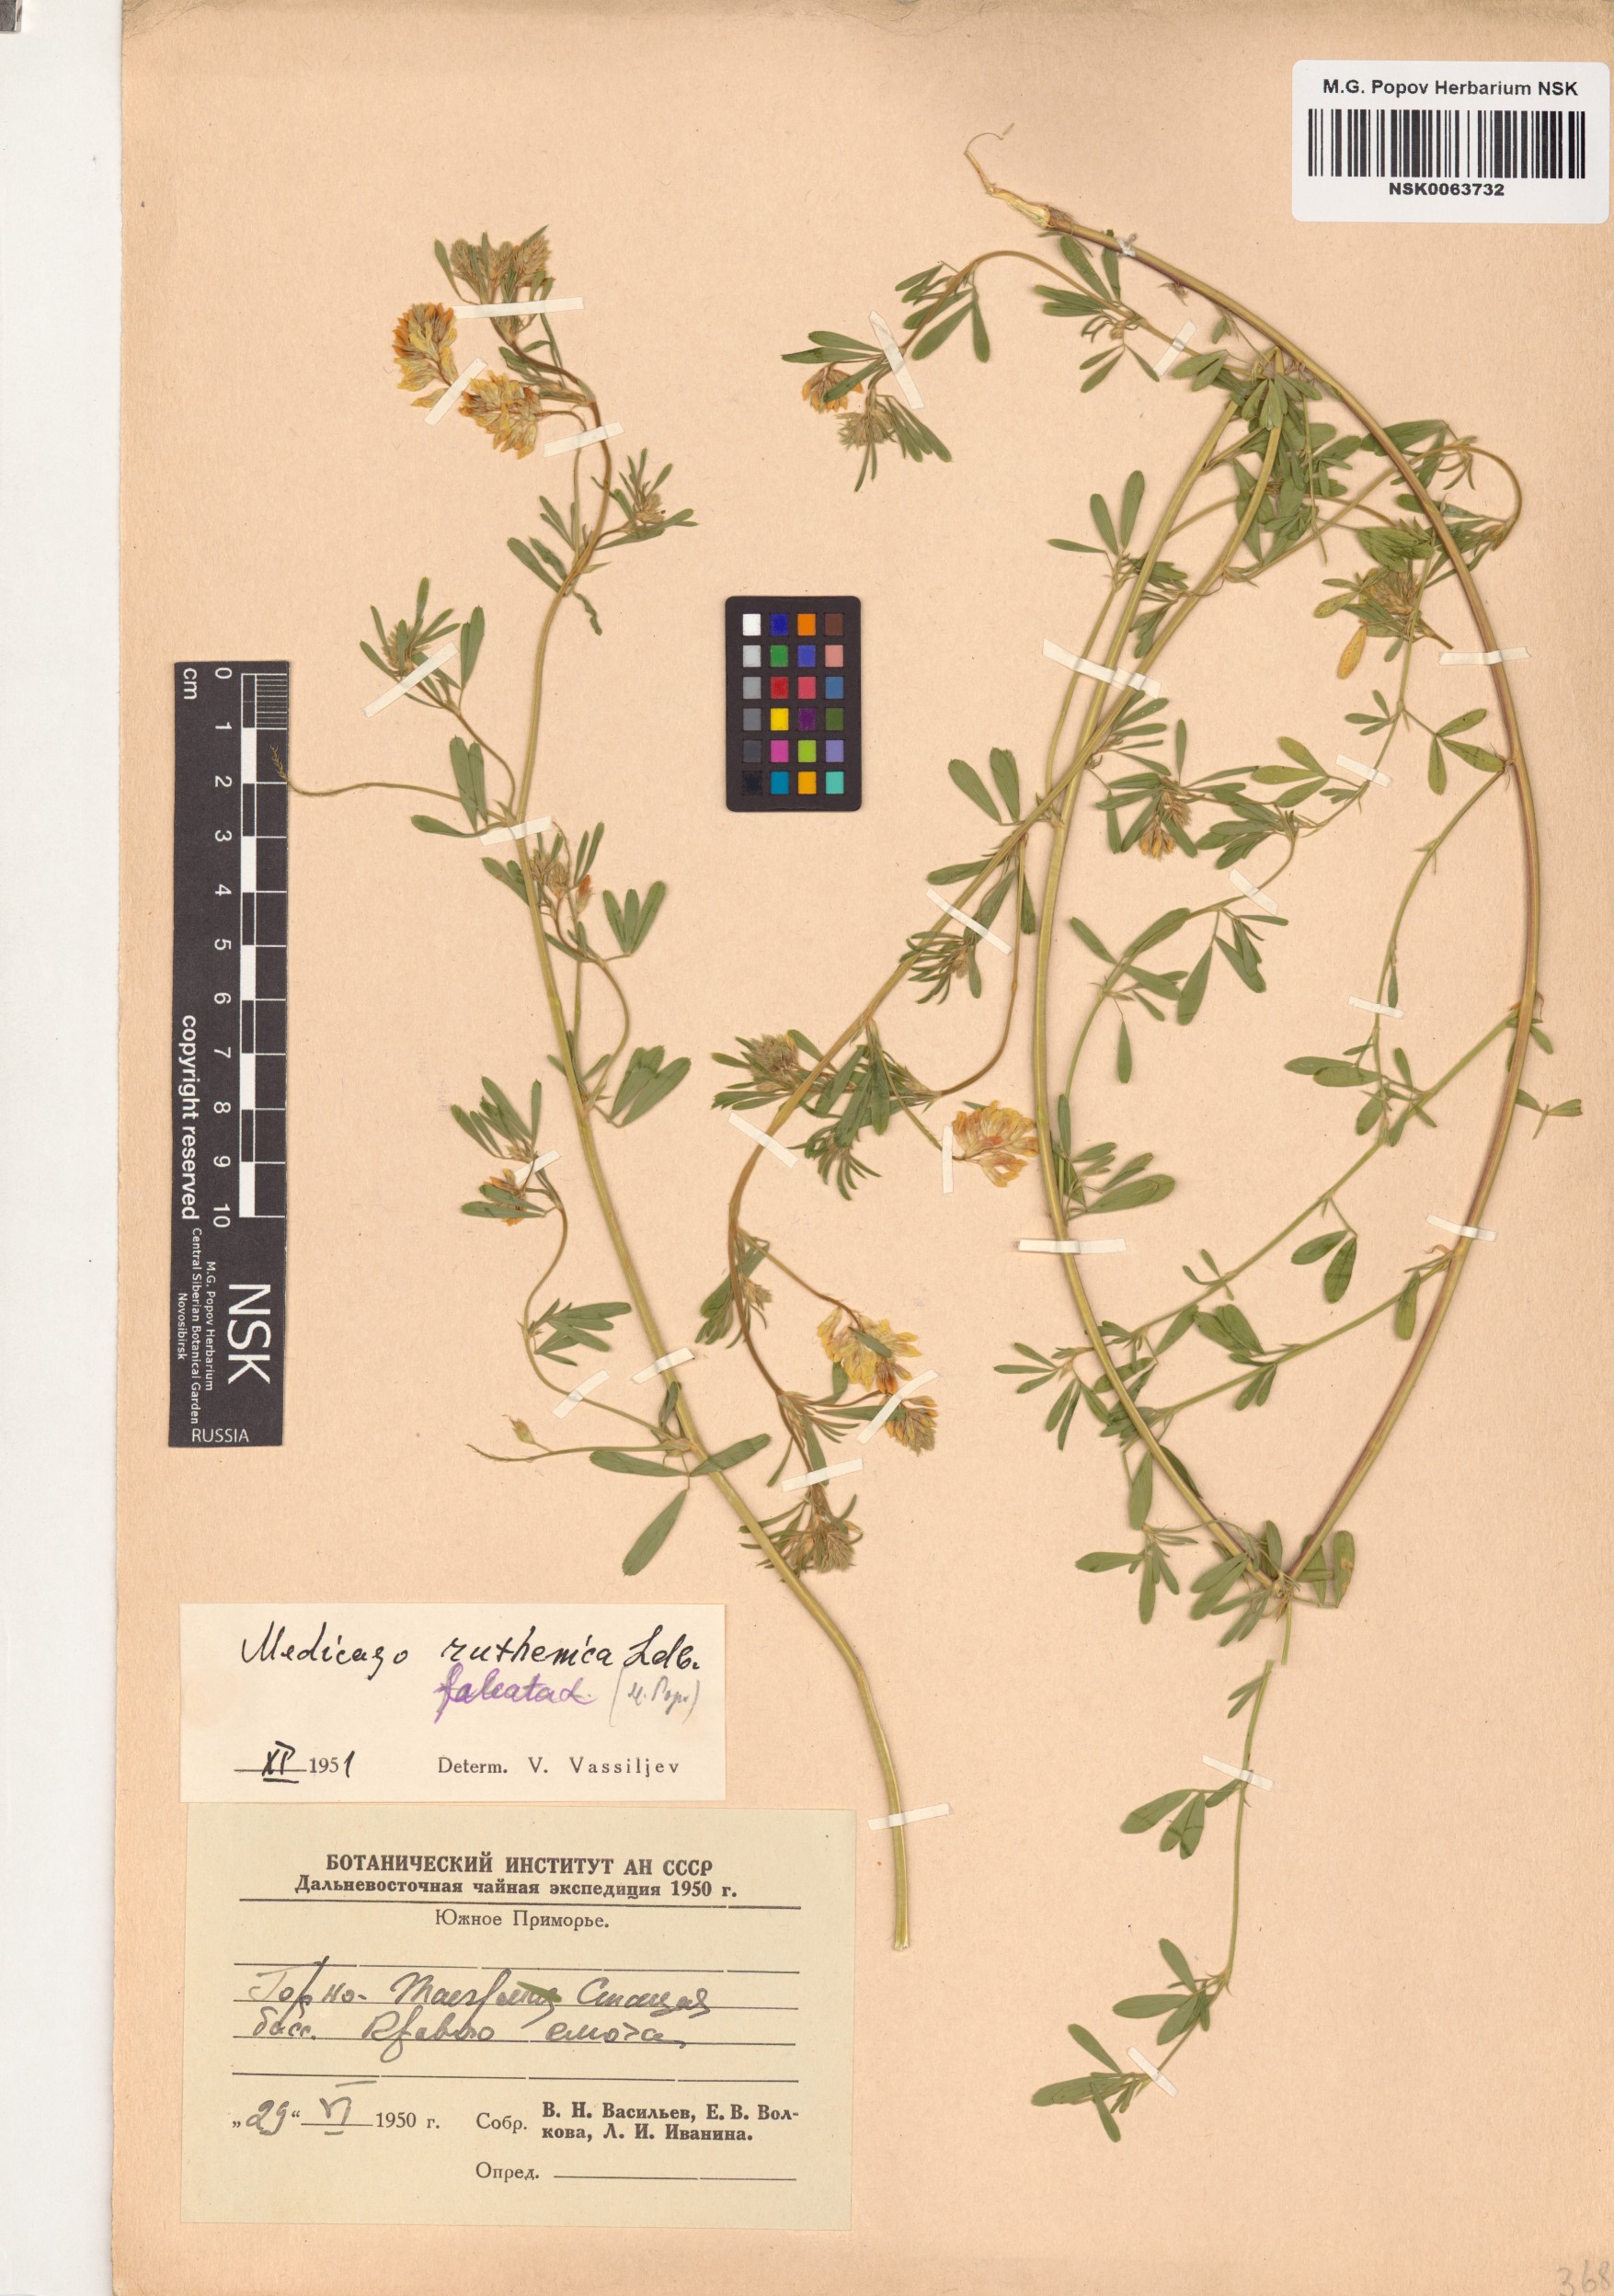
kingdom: Plantae
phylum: Tracheophyta
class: Magnoliopsida
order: Fabales
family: Fabaceae
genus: Medicago
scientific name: Medicago ruthenica
